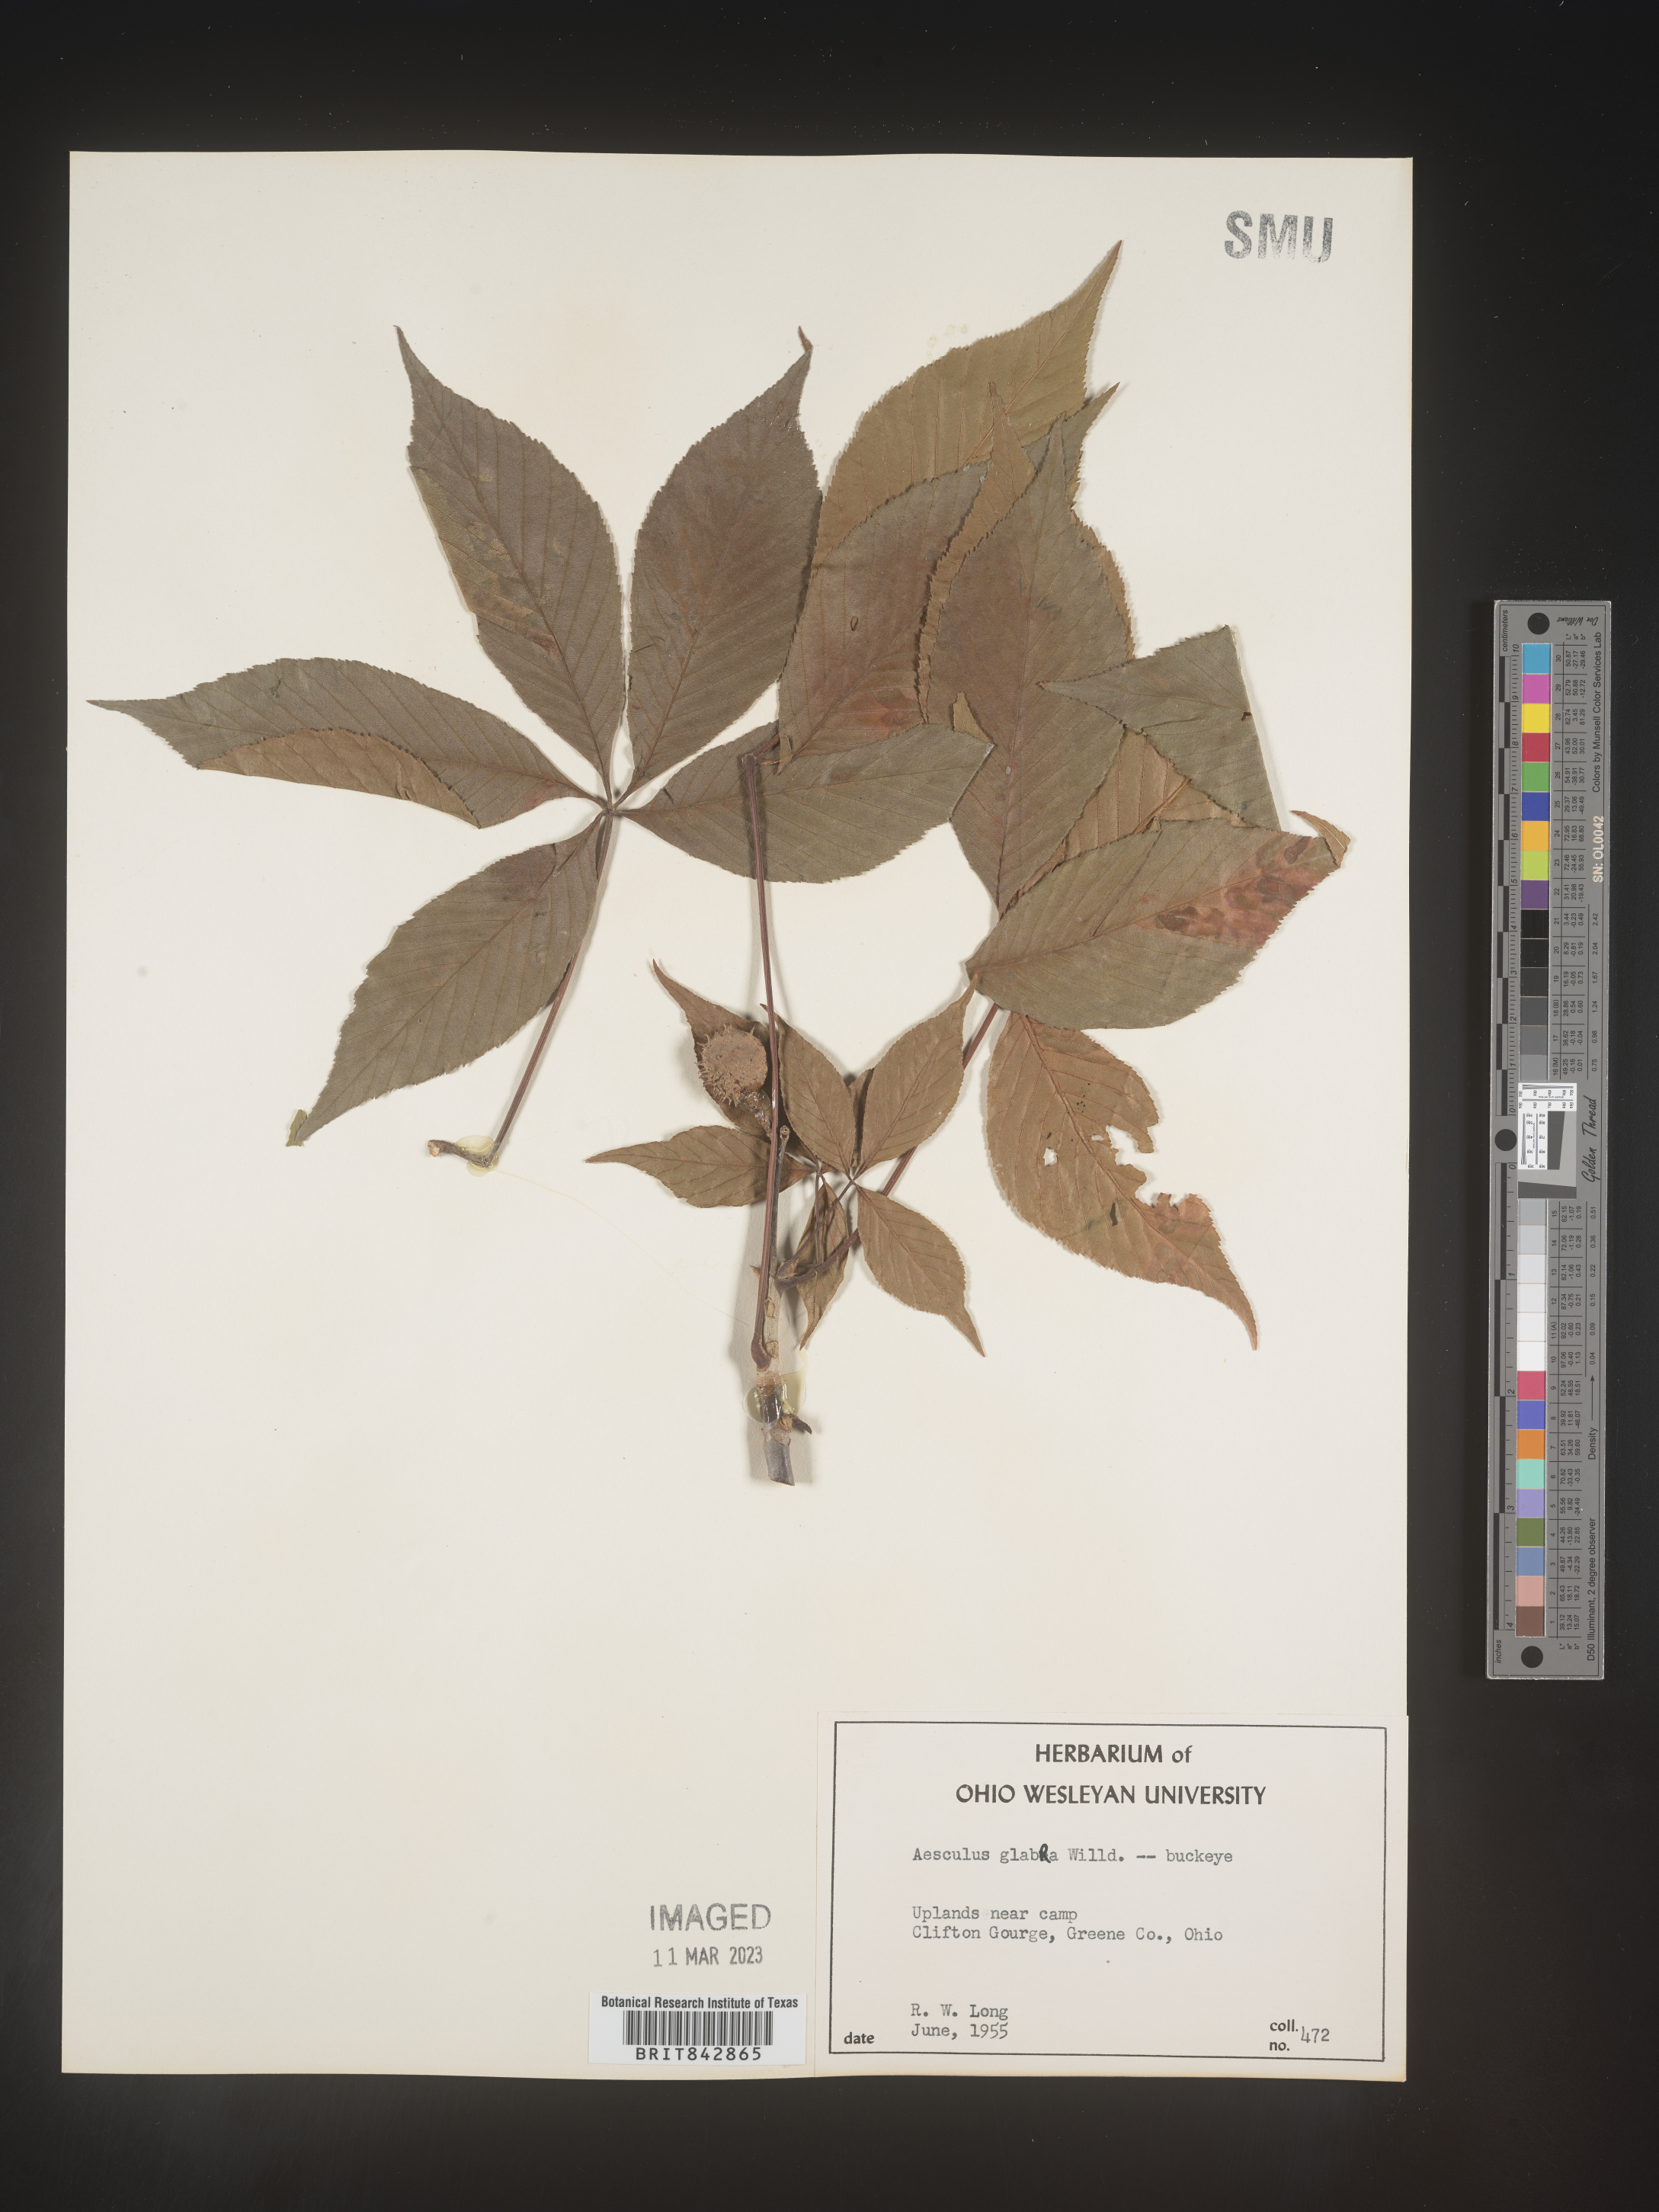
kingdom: Plantae
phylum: Tracheophyta
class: Magnoliopsida
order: Sapindales
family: Sapindaceae
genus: Aesculus
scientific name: Aesculus glabra
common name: Ohio buckeye
